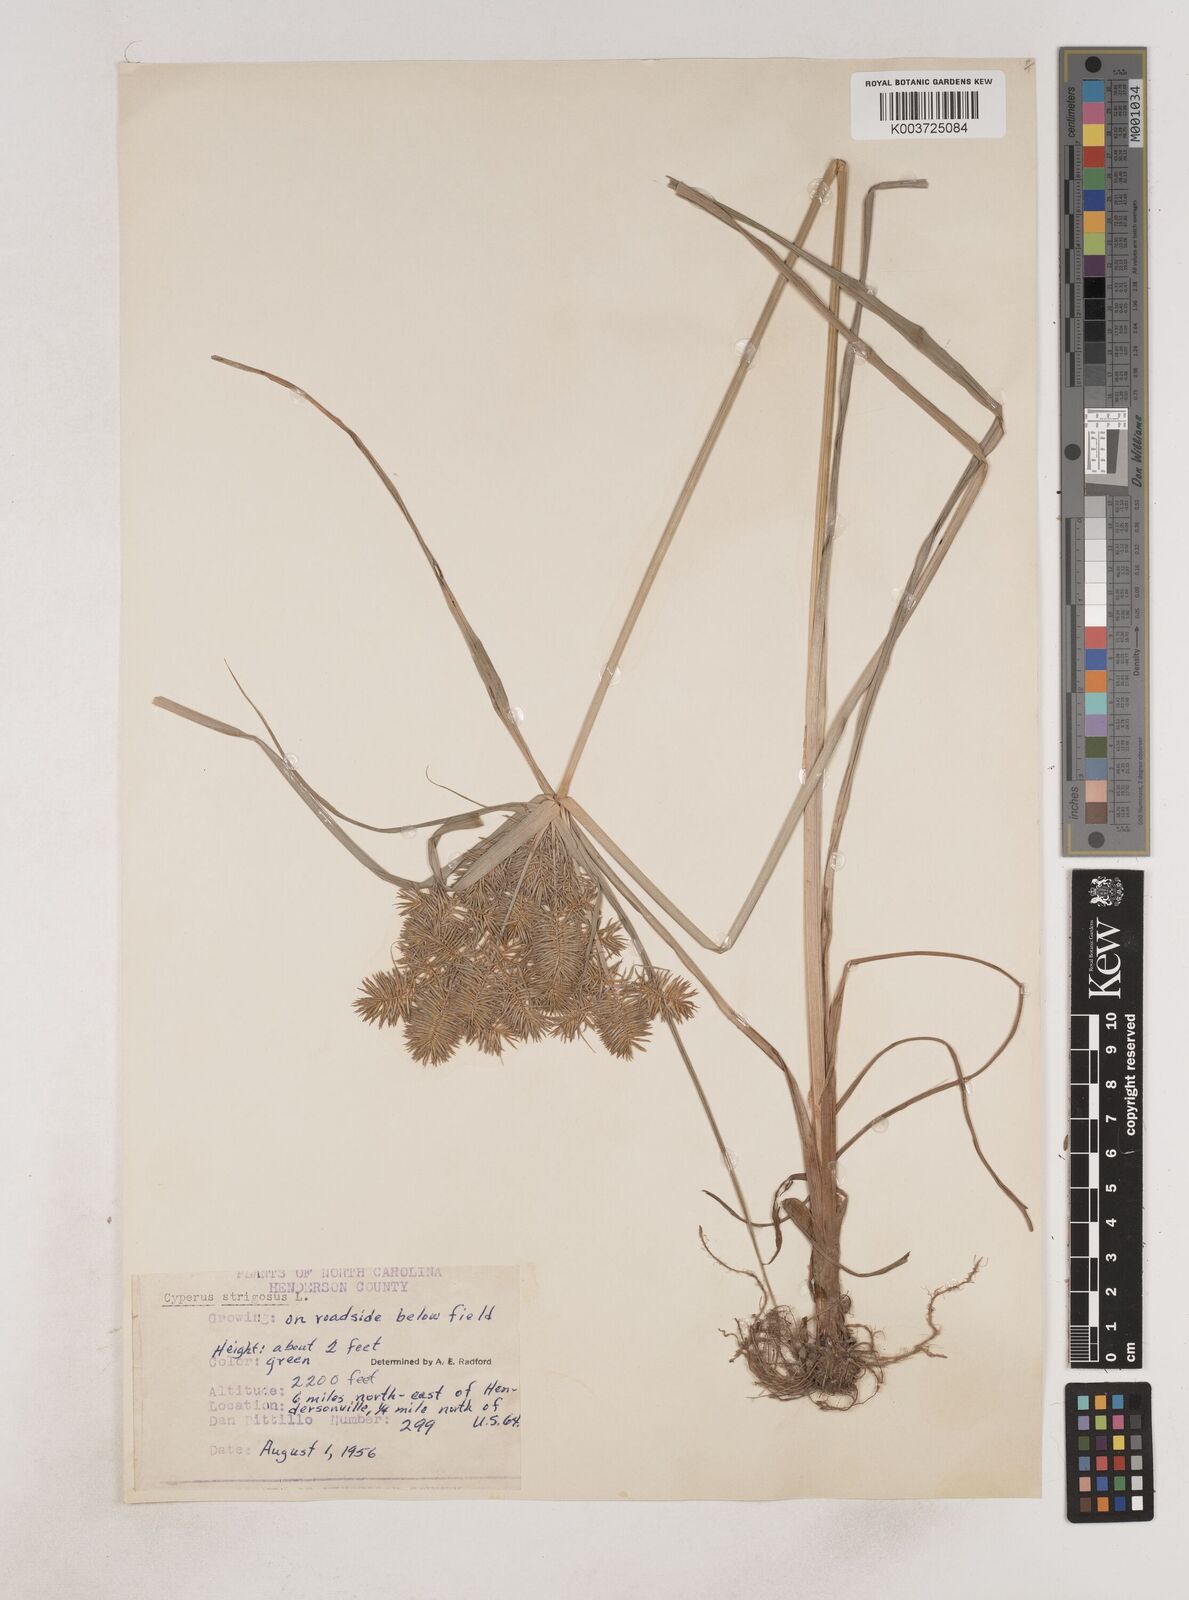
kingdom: Plantae
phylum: Tracheophyta
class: Liliopsida
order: Poales
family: Cyperaceae
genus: Cyperus
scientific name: Cyperus strigosus
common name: False nutsedge
